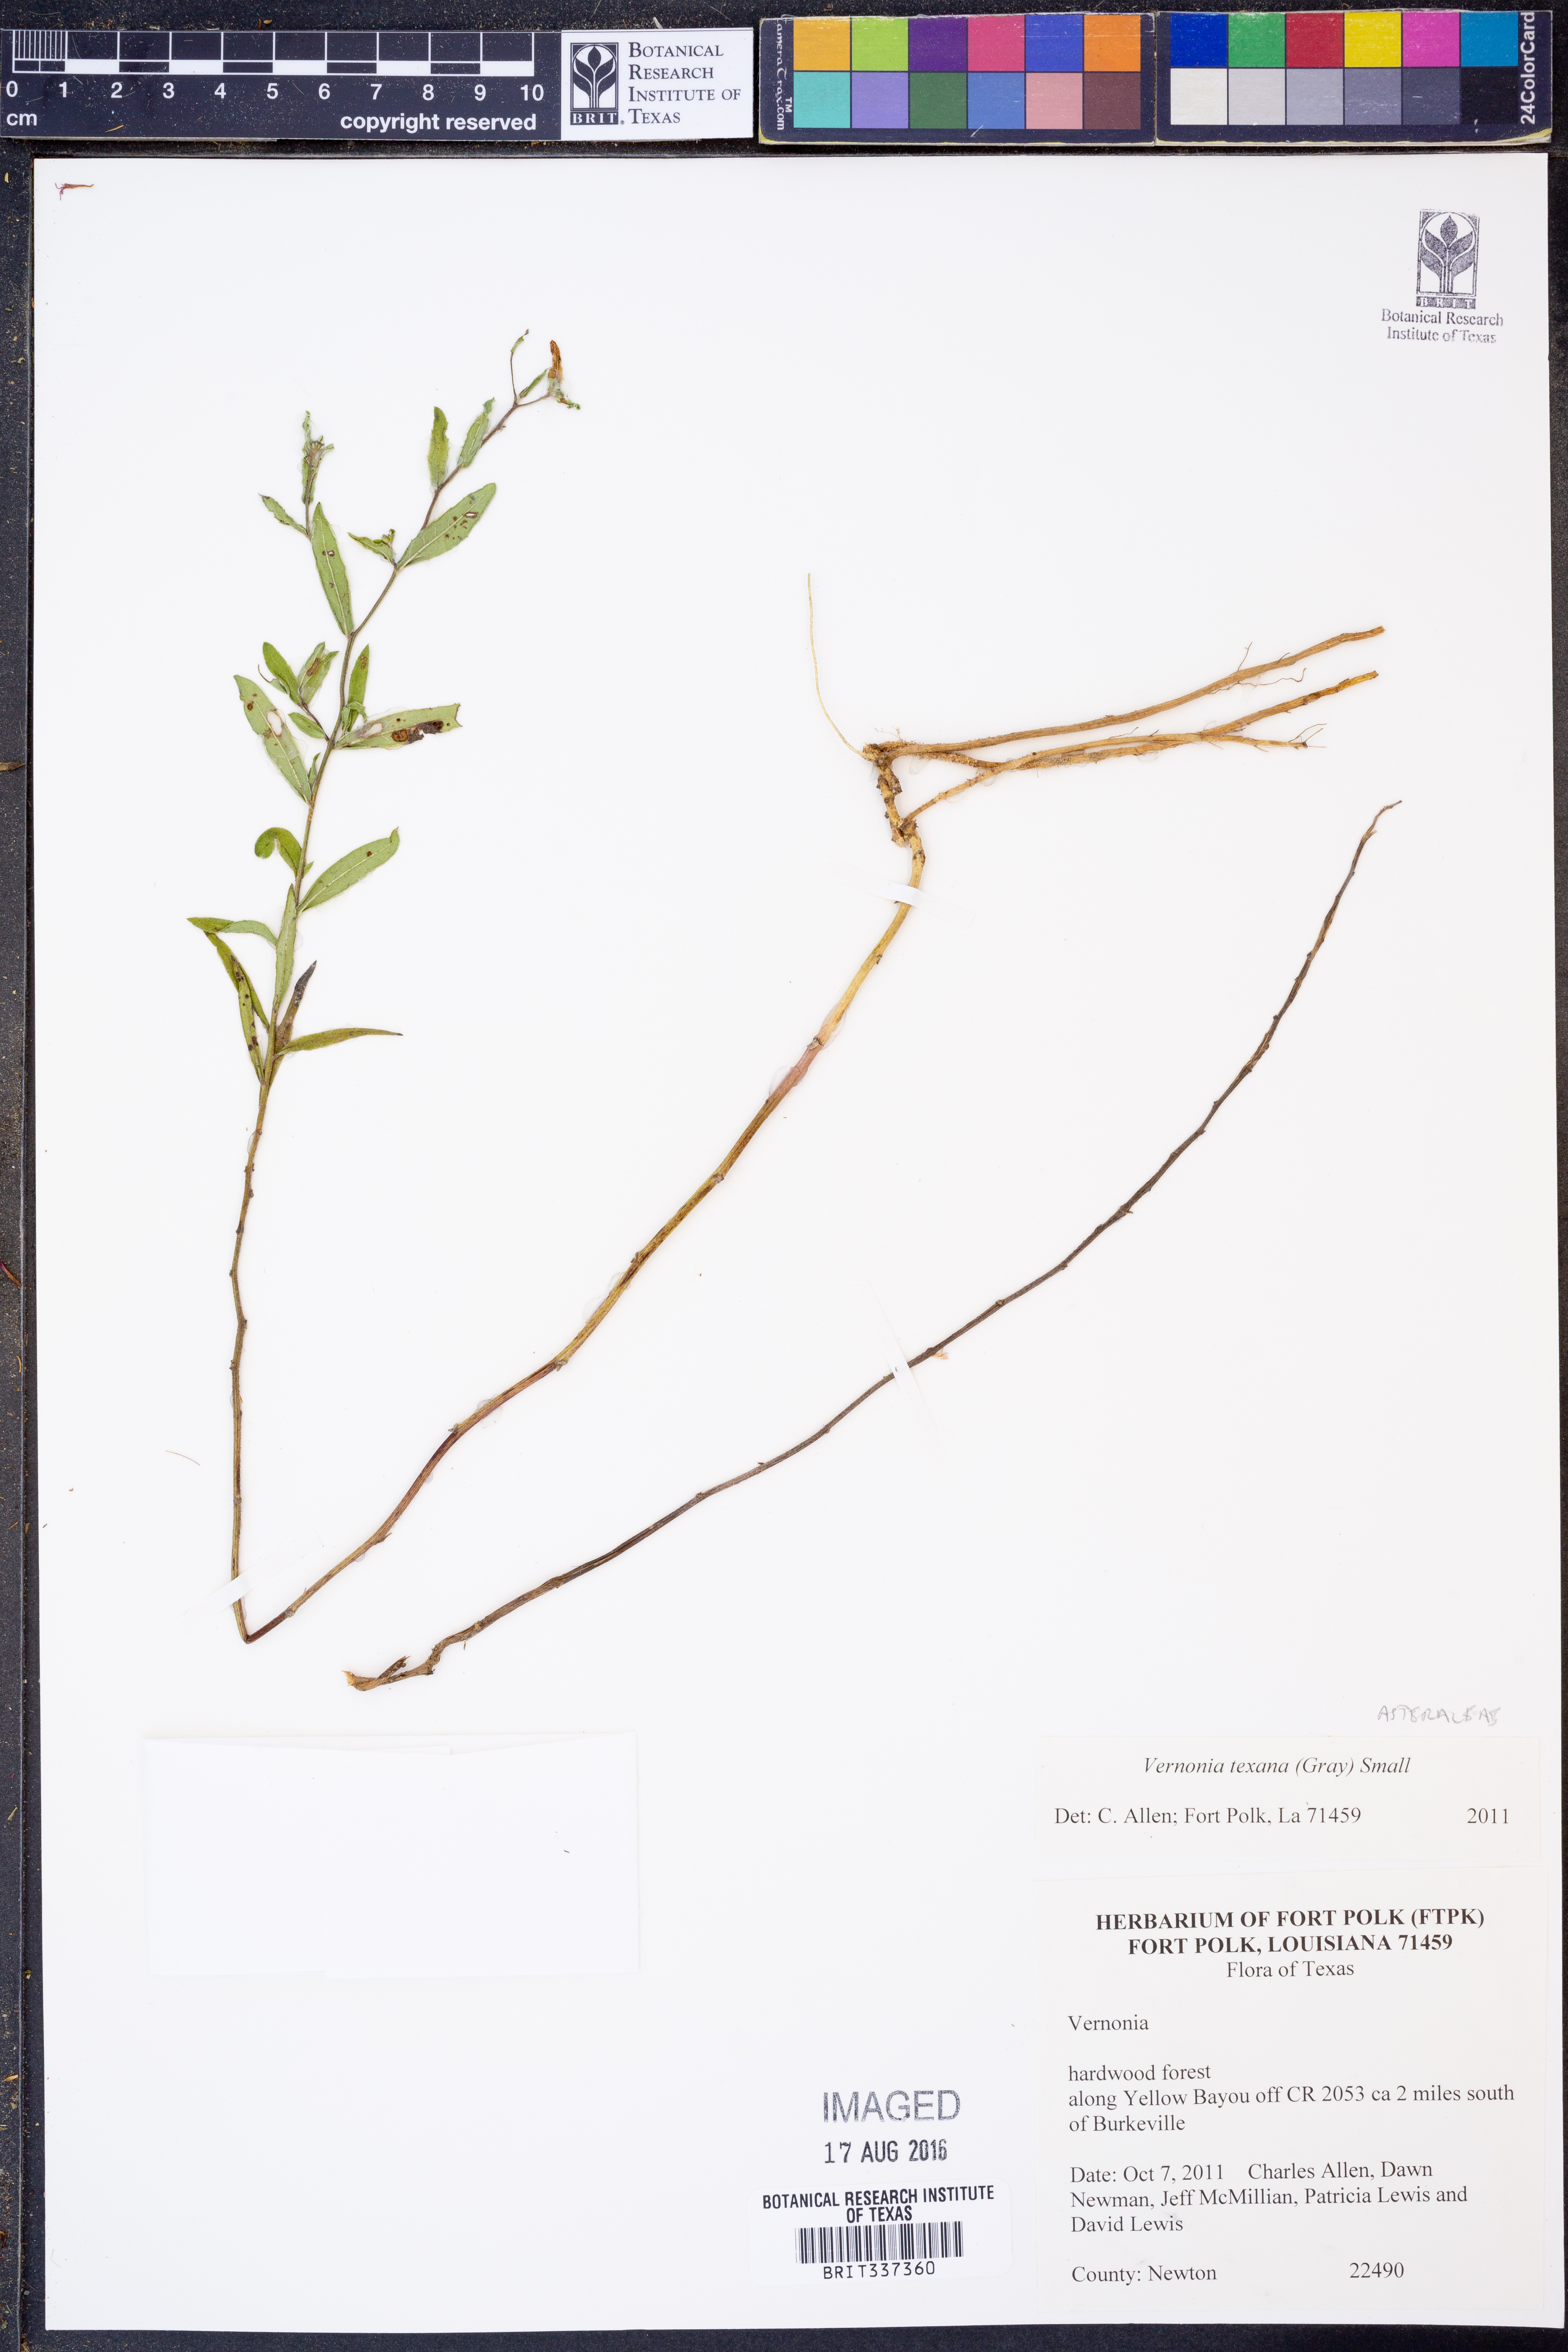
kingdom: Plantae
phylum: Tracheophyta
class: Magnoliopsida
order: Asterales
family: Asteraceae
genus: Vernonia
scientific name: Vernonia texana
